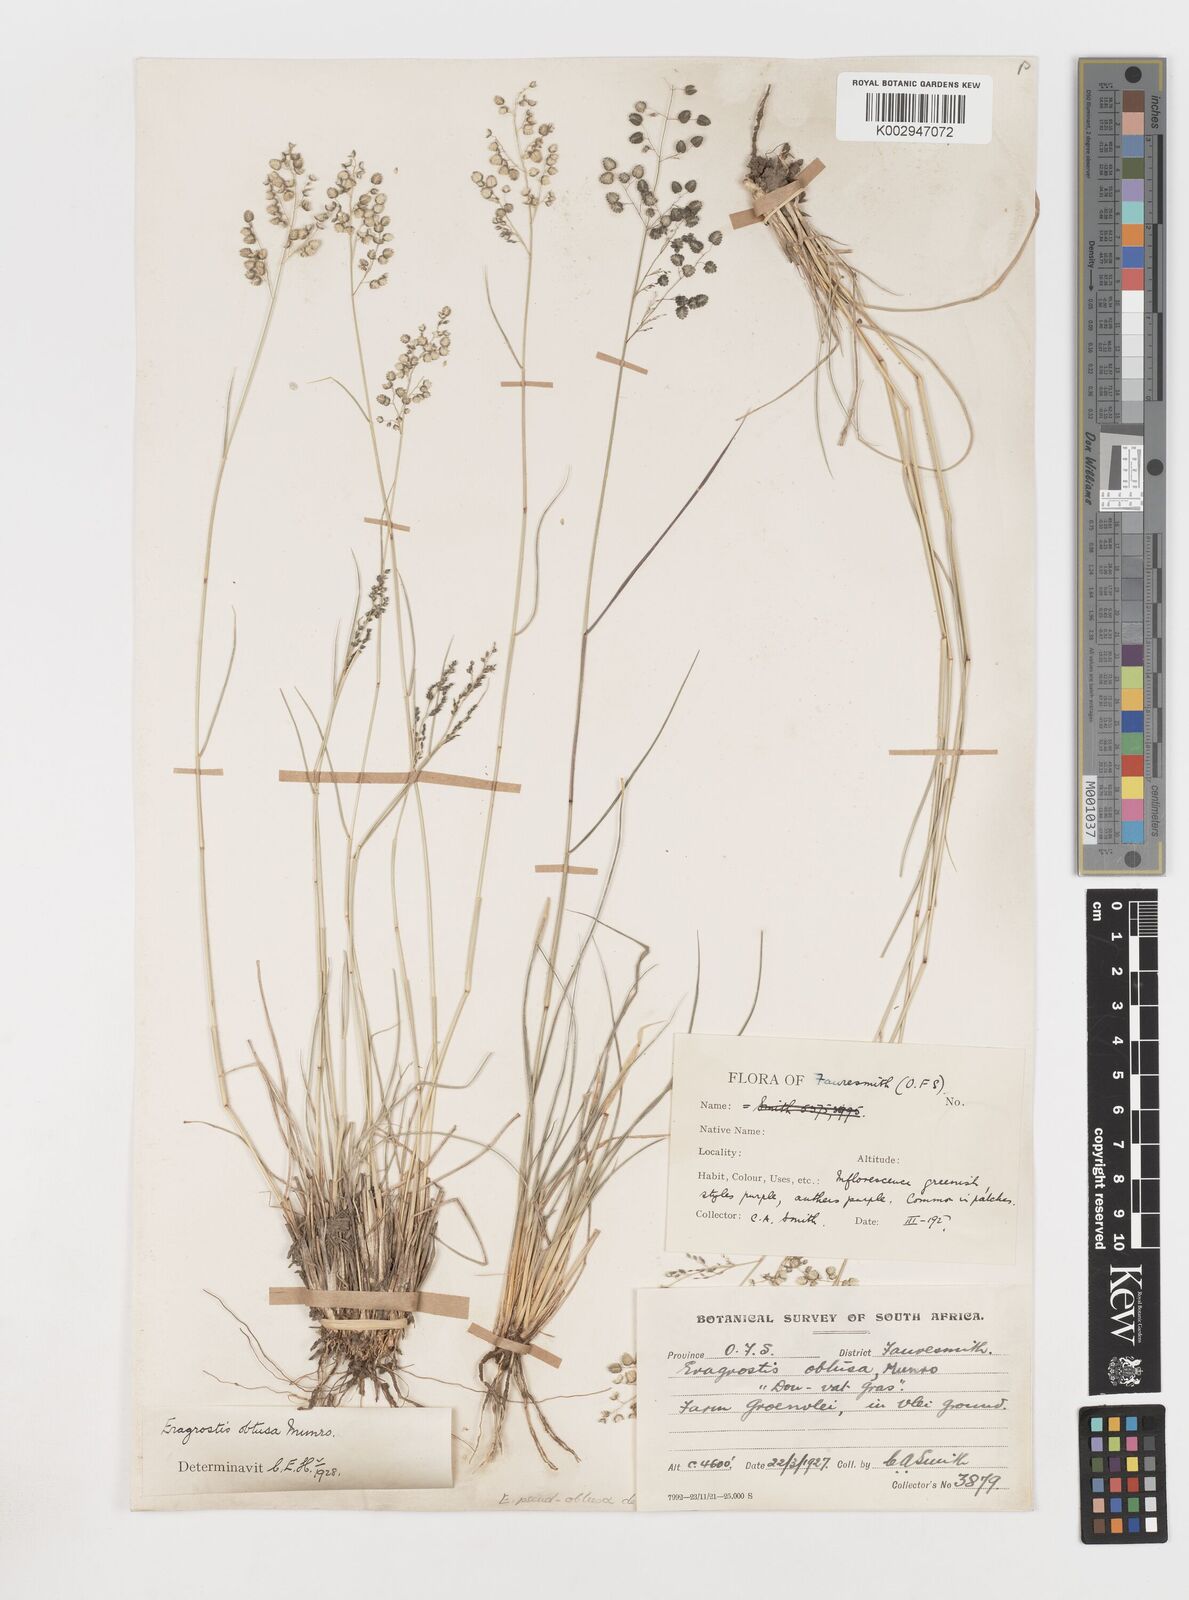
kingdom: Plantae
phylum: Tracheophyta
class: Liliopsida
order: Poales
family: Poaceae
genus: Eragrostis
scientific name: Eragrostis pseudobtusa
